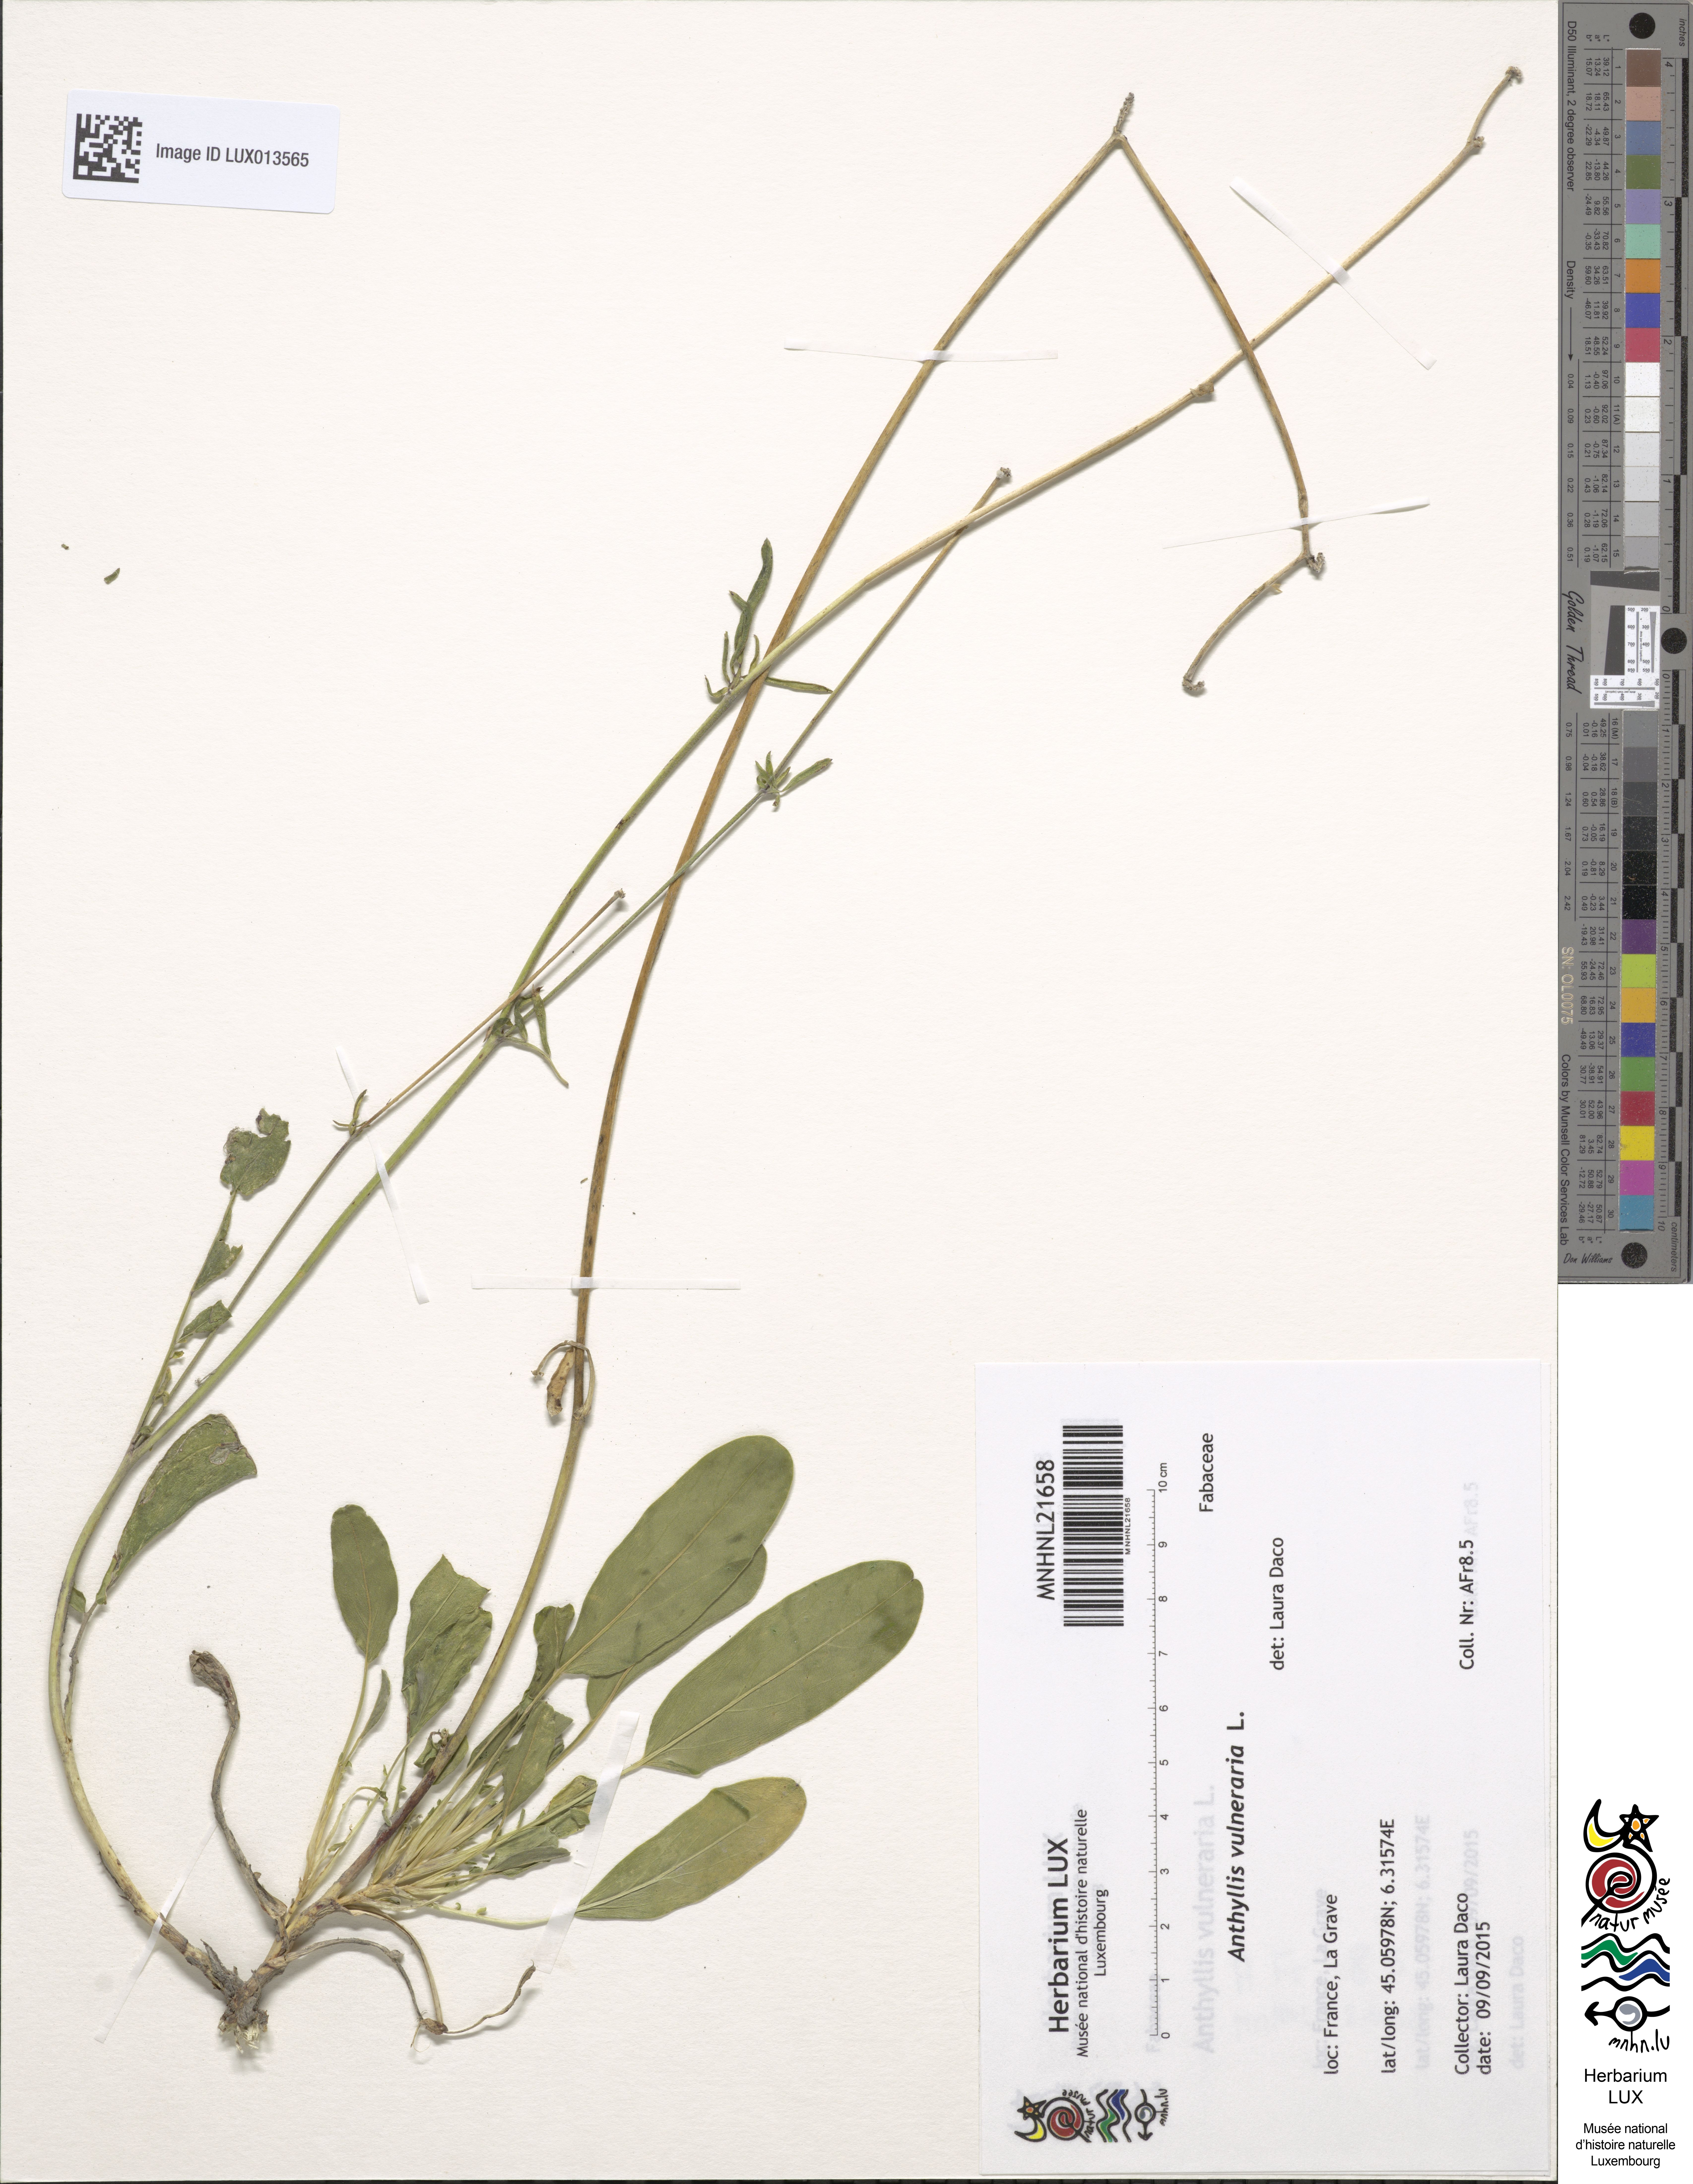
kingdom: Plantae
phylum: Tracheophyta
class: Magnoliopsida
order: Fabales
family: Fabaceae
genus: Anthyllis
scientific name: Anthyllis vulneraria
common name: Kidney vetch
